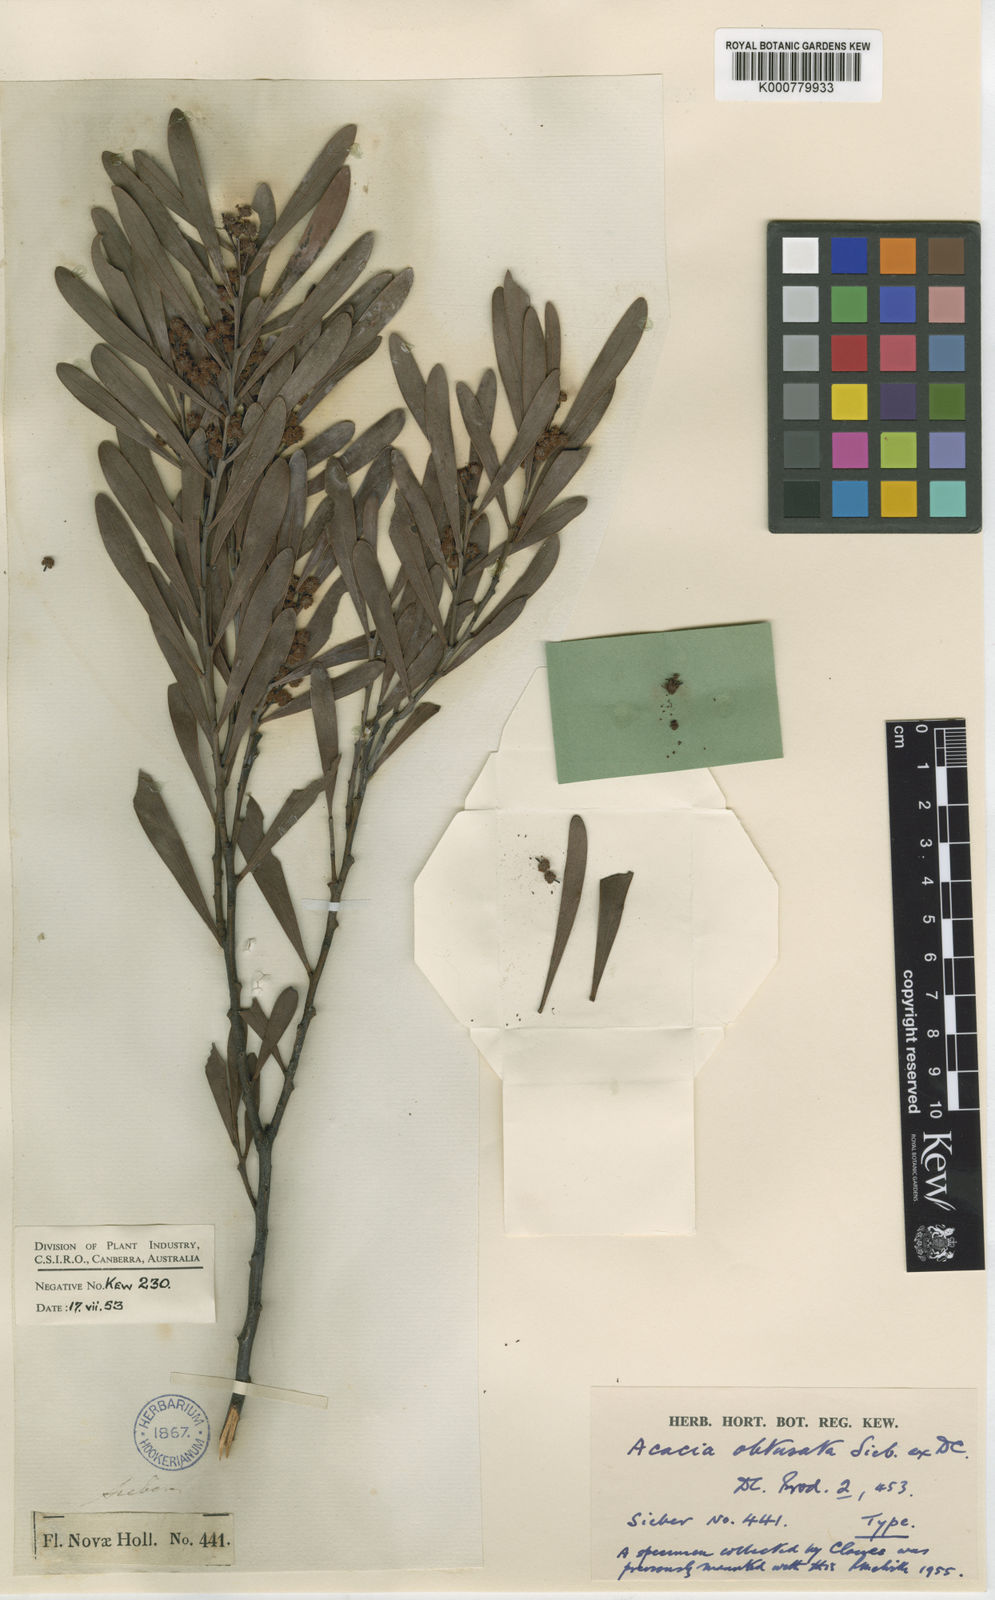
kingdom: Plantae
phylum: Tracheophyta
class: Magnoliopsida
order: Fabales
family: Fabaceae
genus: Acacia
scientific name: Acacia obtusata
